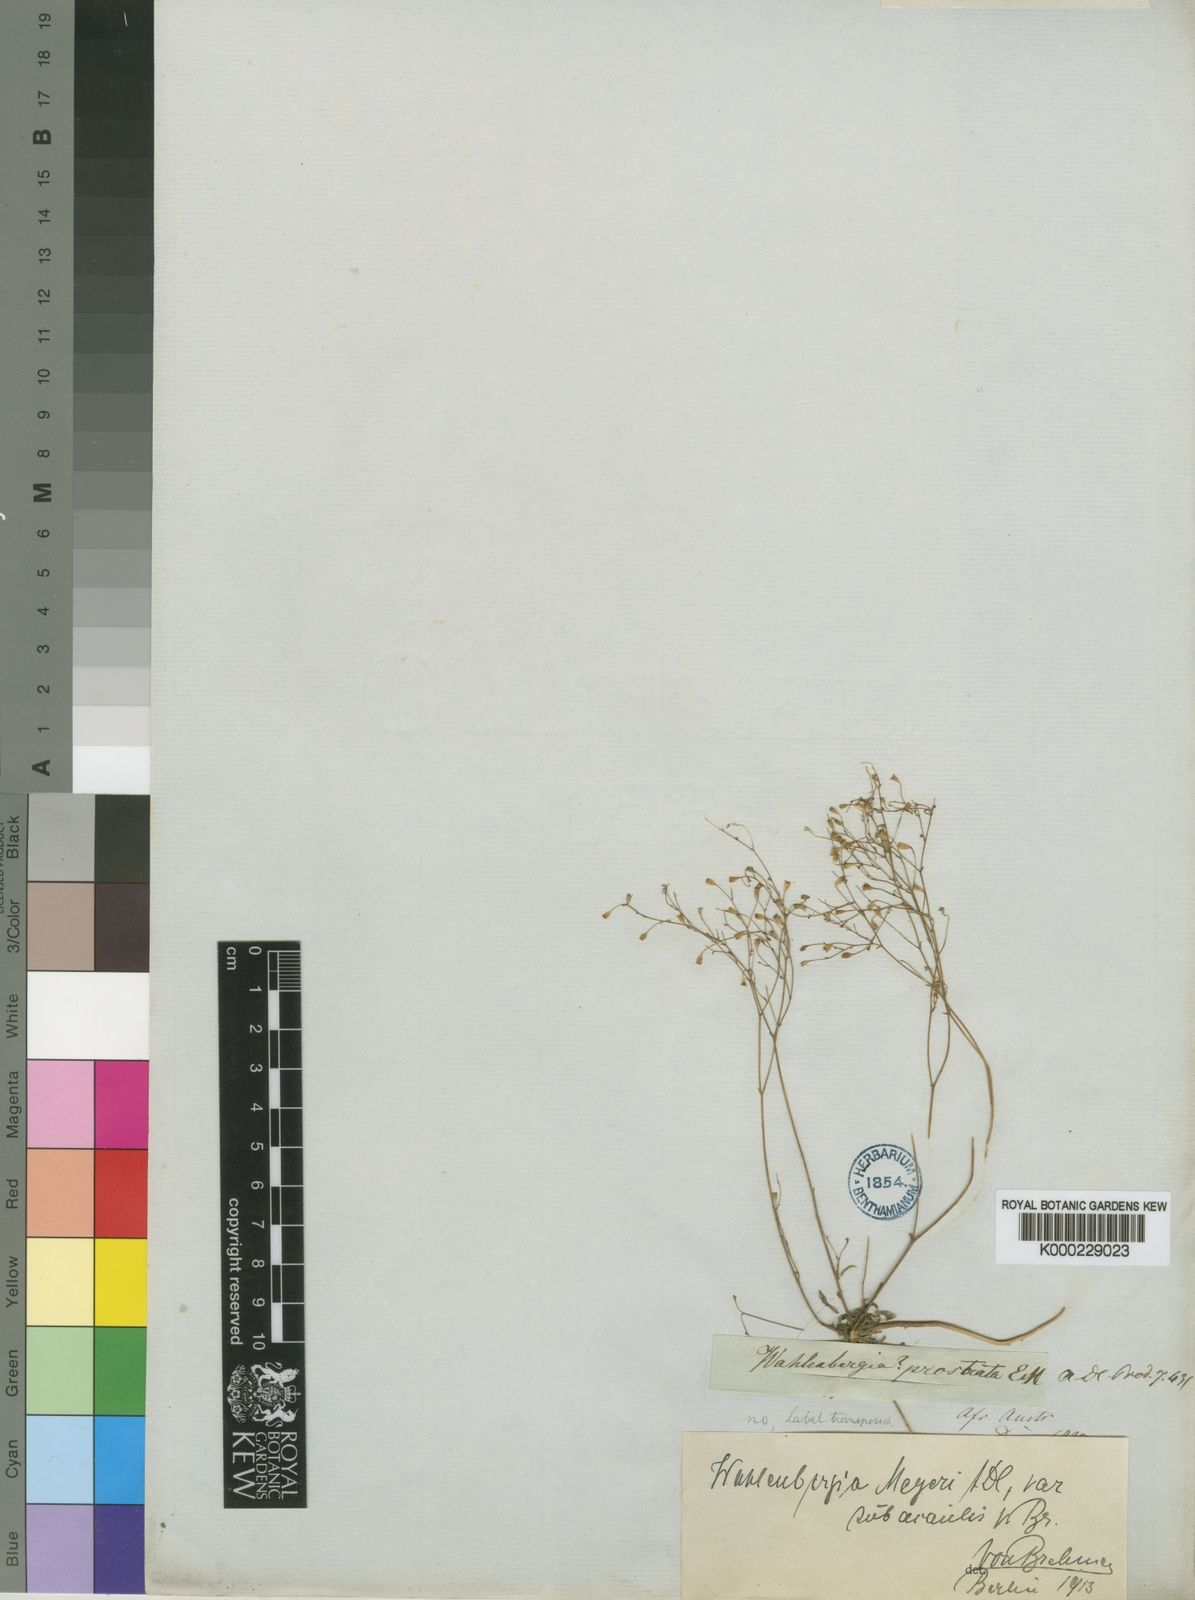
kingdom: Plantae
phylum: Tracheophyta
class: Magnoliopsida
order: Asterales
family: Campanulaceae
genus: Wahlenbergia
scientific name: Wahlenbergia meyeri
